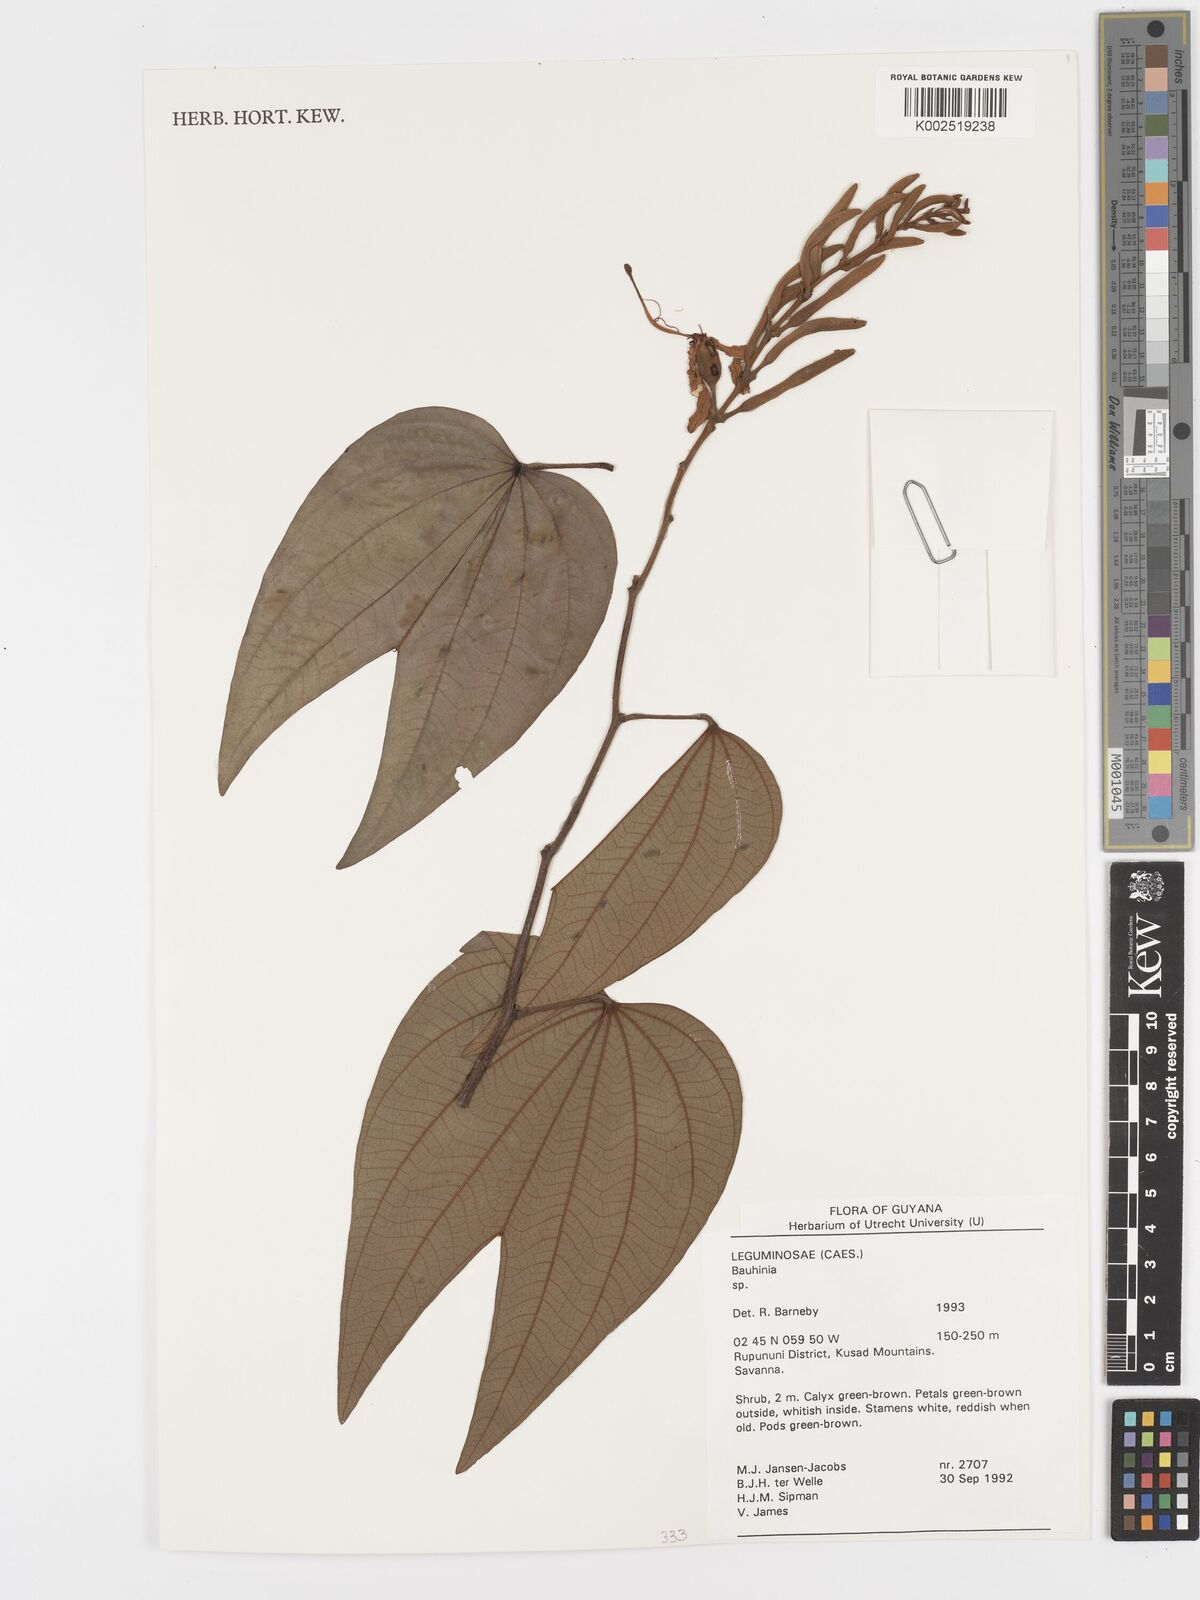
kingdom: Plantae
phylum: Tracheophyta
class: Magnoliopsida
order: Fabales
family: Fabaceae
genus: Bauhinia
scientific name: Bauhinia
